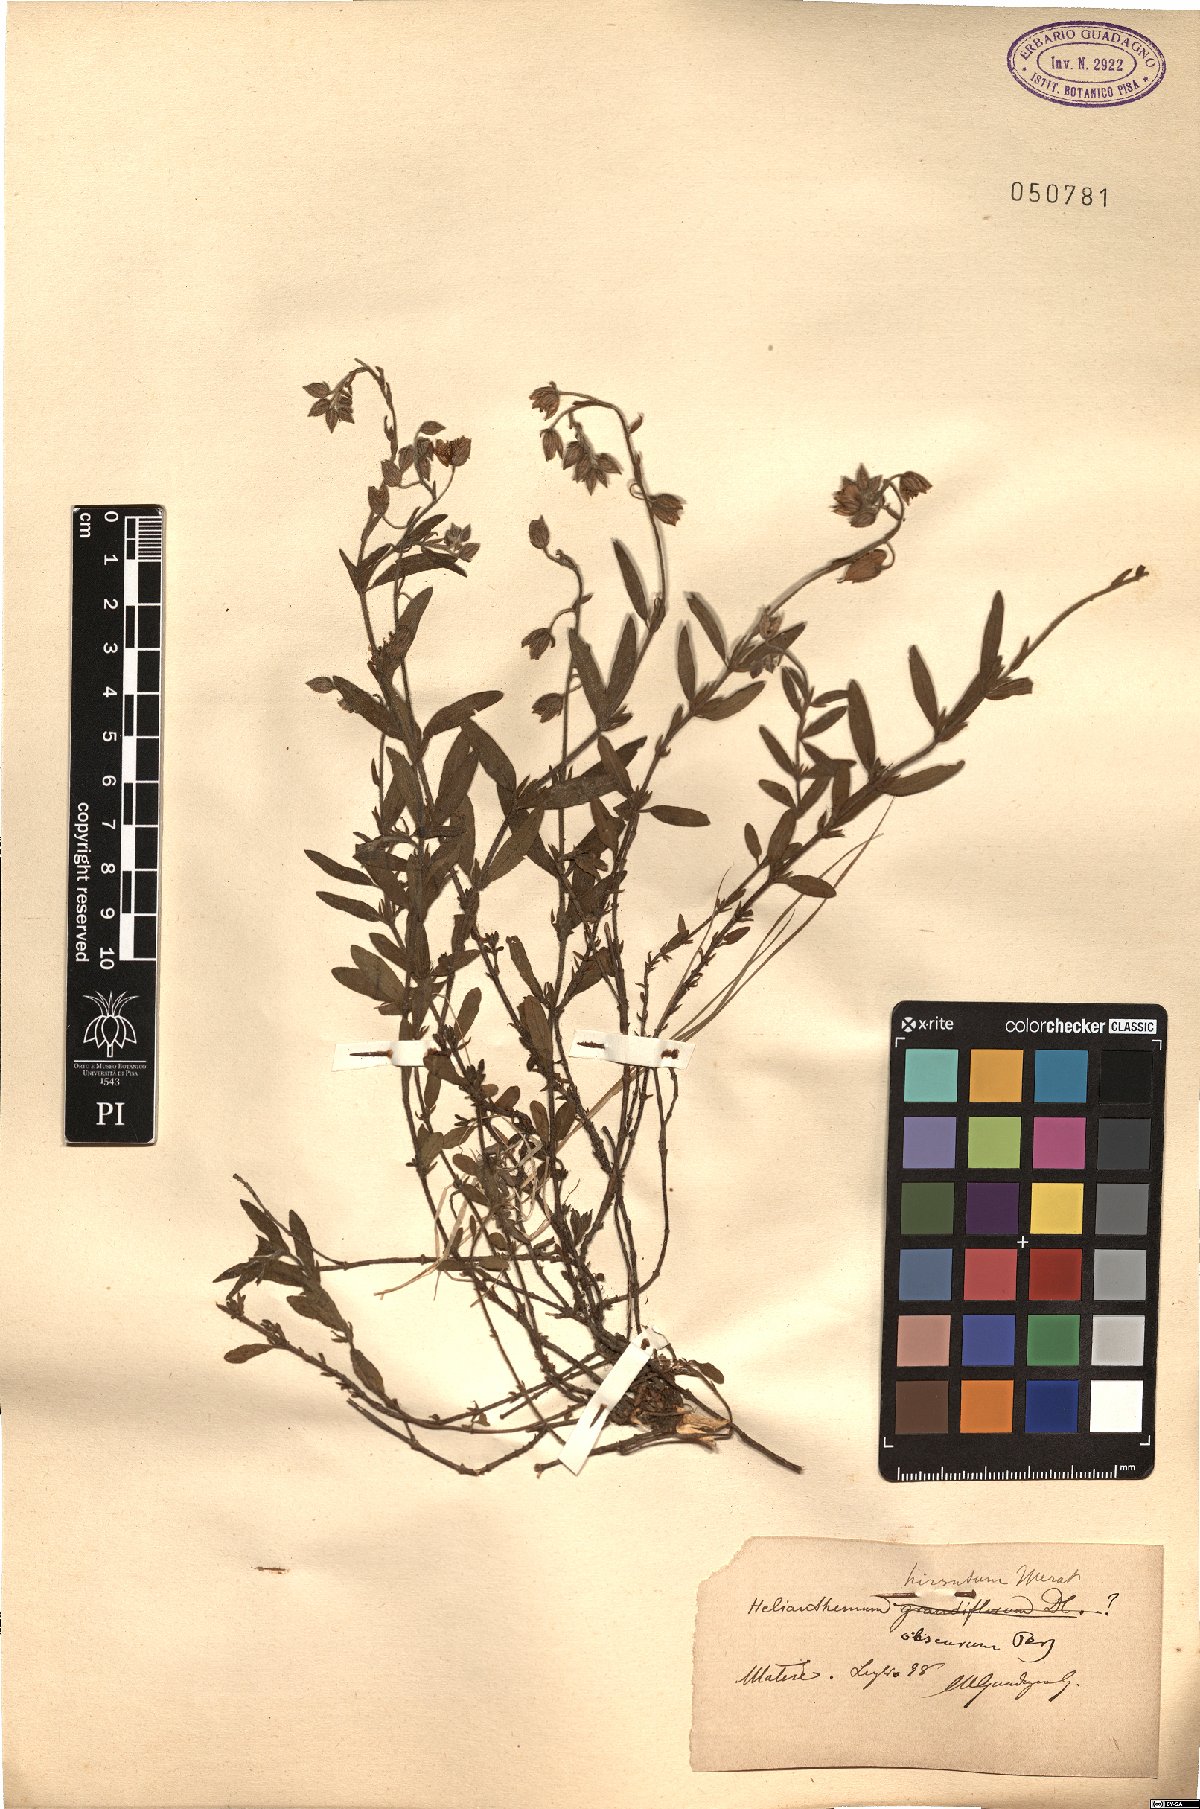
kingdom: Plantae
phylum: Tracheophyta
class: Magnoliopsida
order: Malvales
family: Cistaceae
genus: Helianthemum
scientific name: Helianthemum nummularium
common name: Common rock-rose
